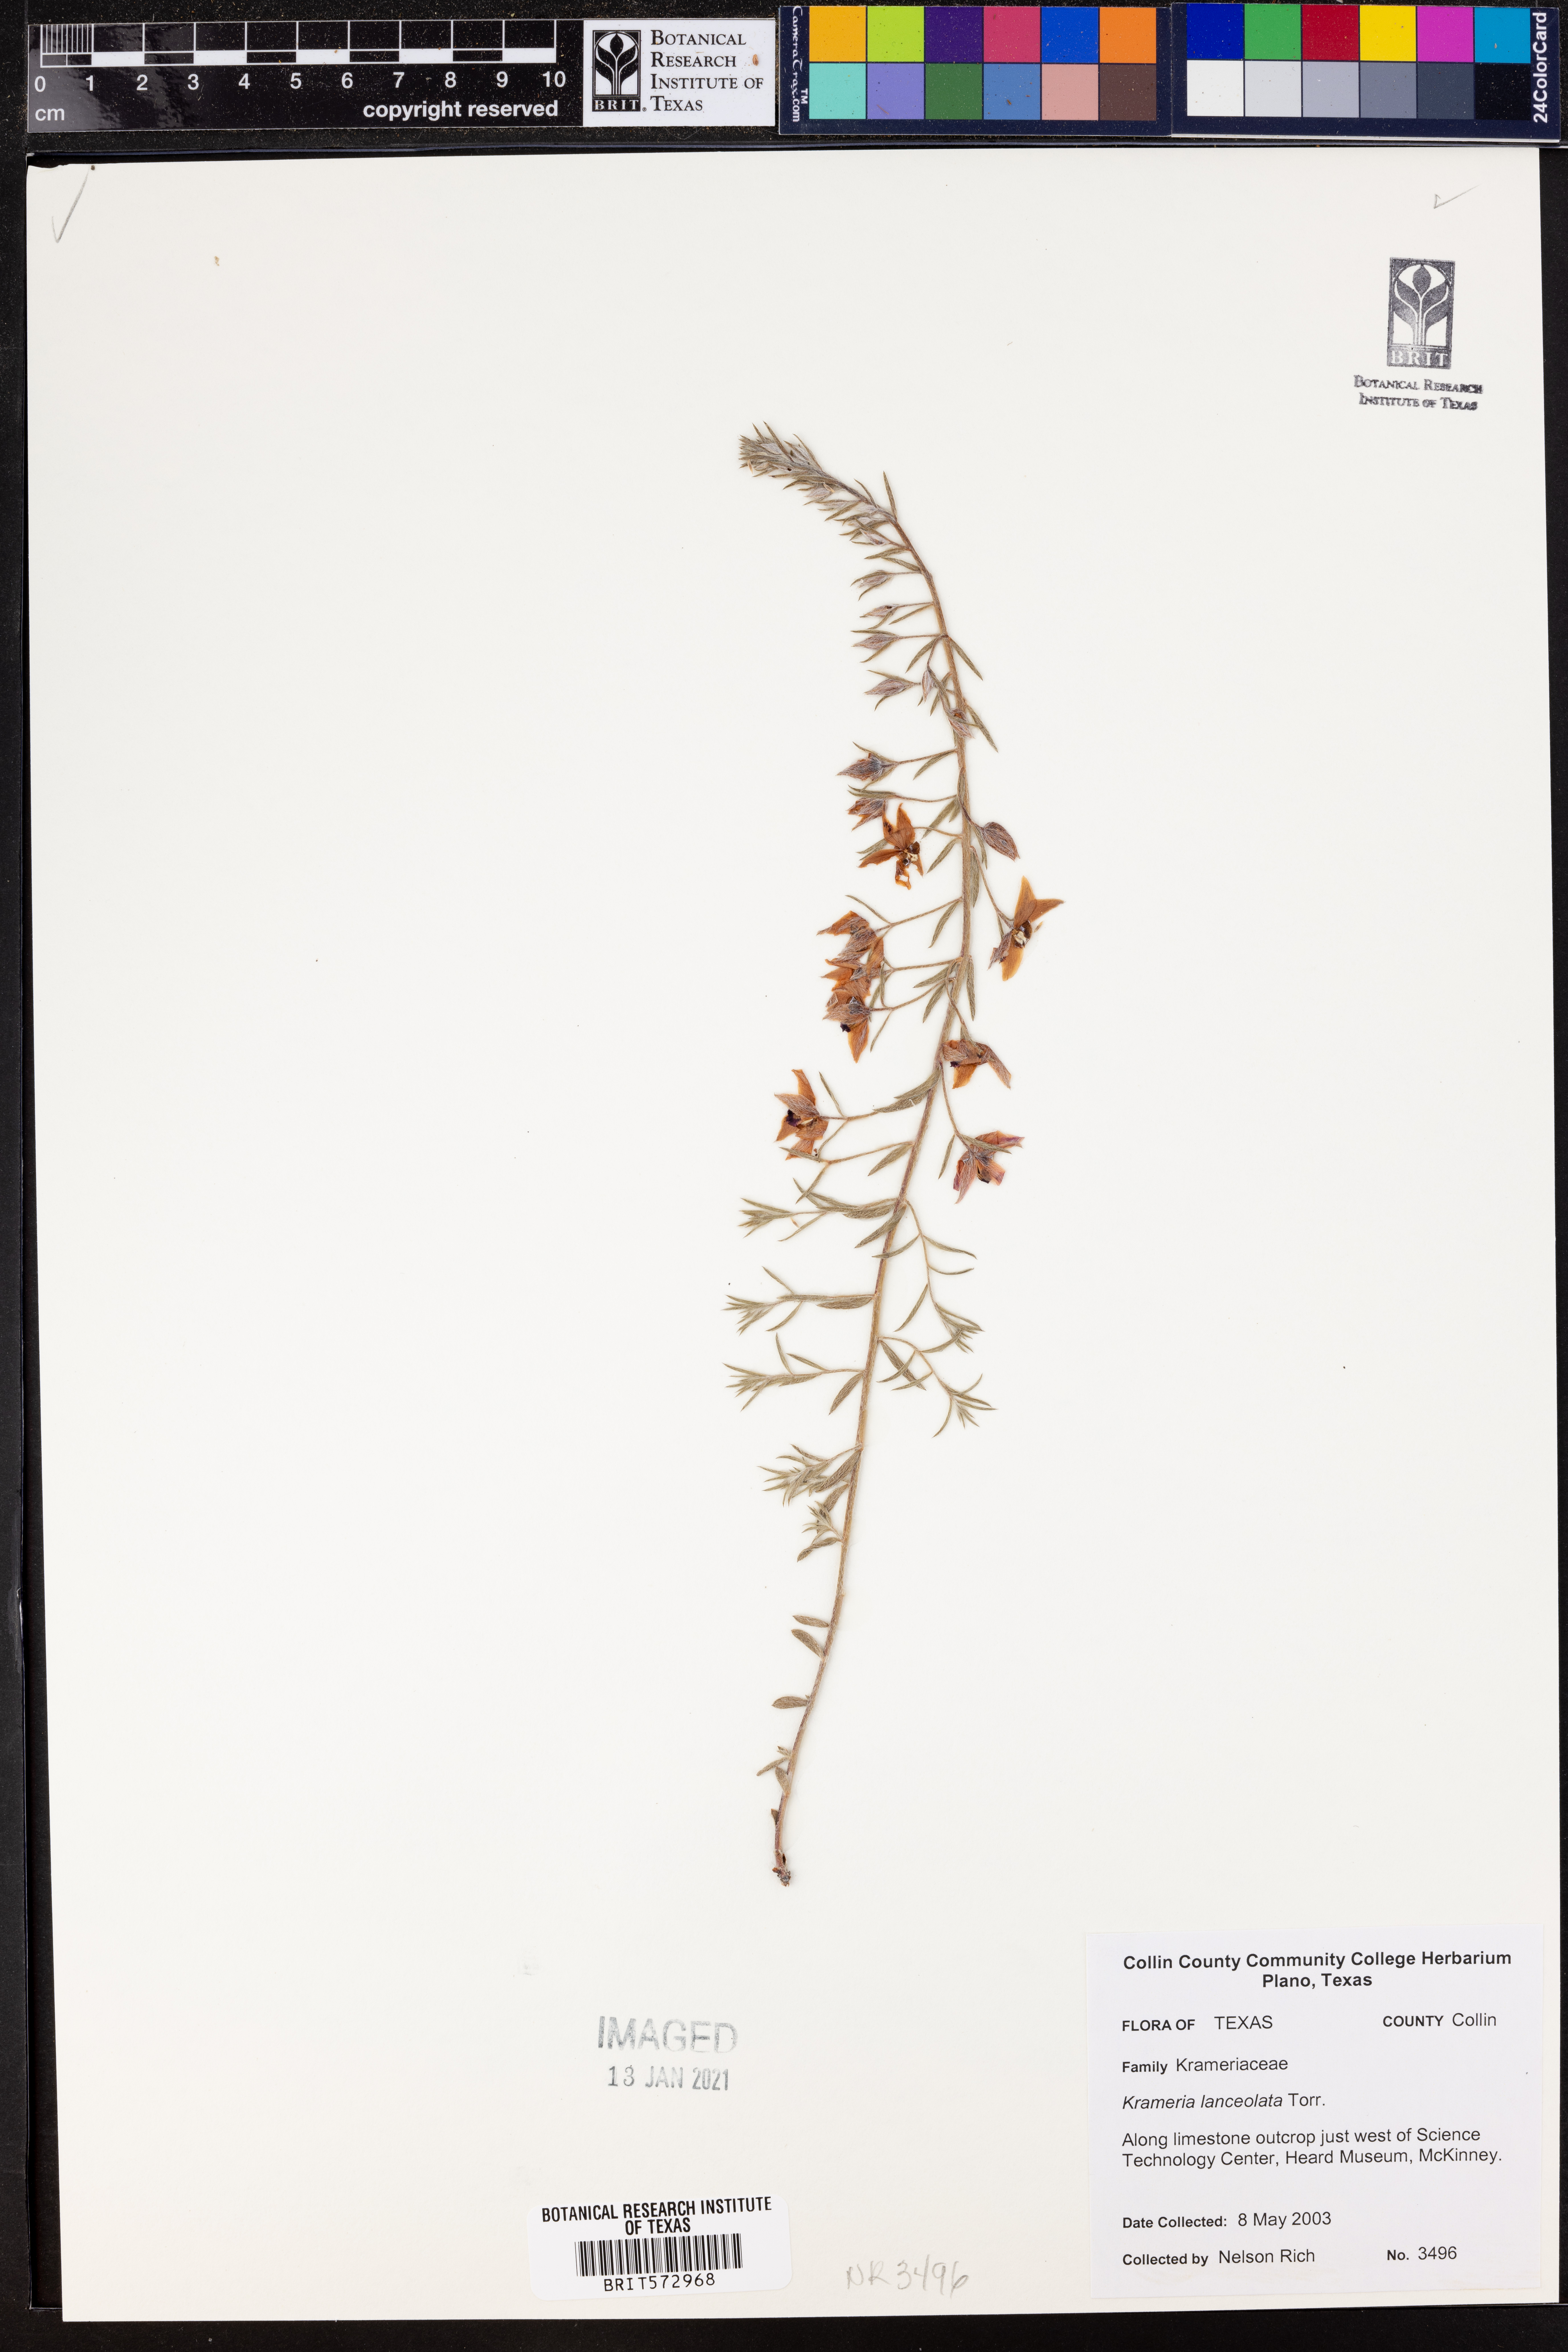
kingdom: Plantae
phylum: Tracheophyta
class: Magnoliopsida
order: Zygophyllales
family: Krameriaceae
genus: Krameria
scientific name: Krameria lanceolata
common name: Ratany
